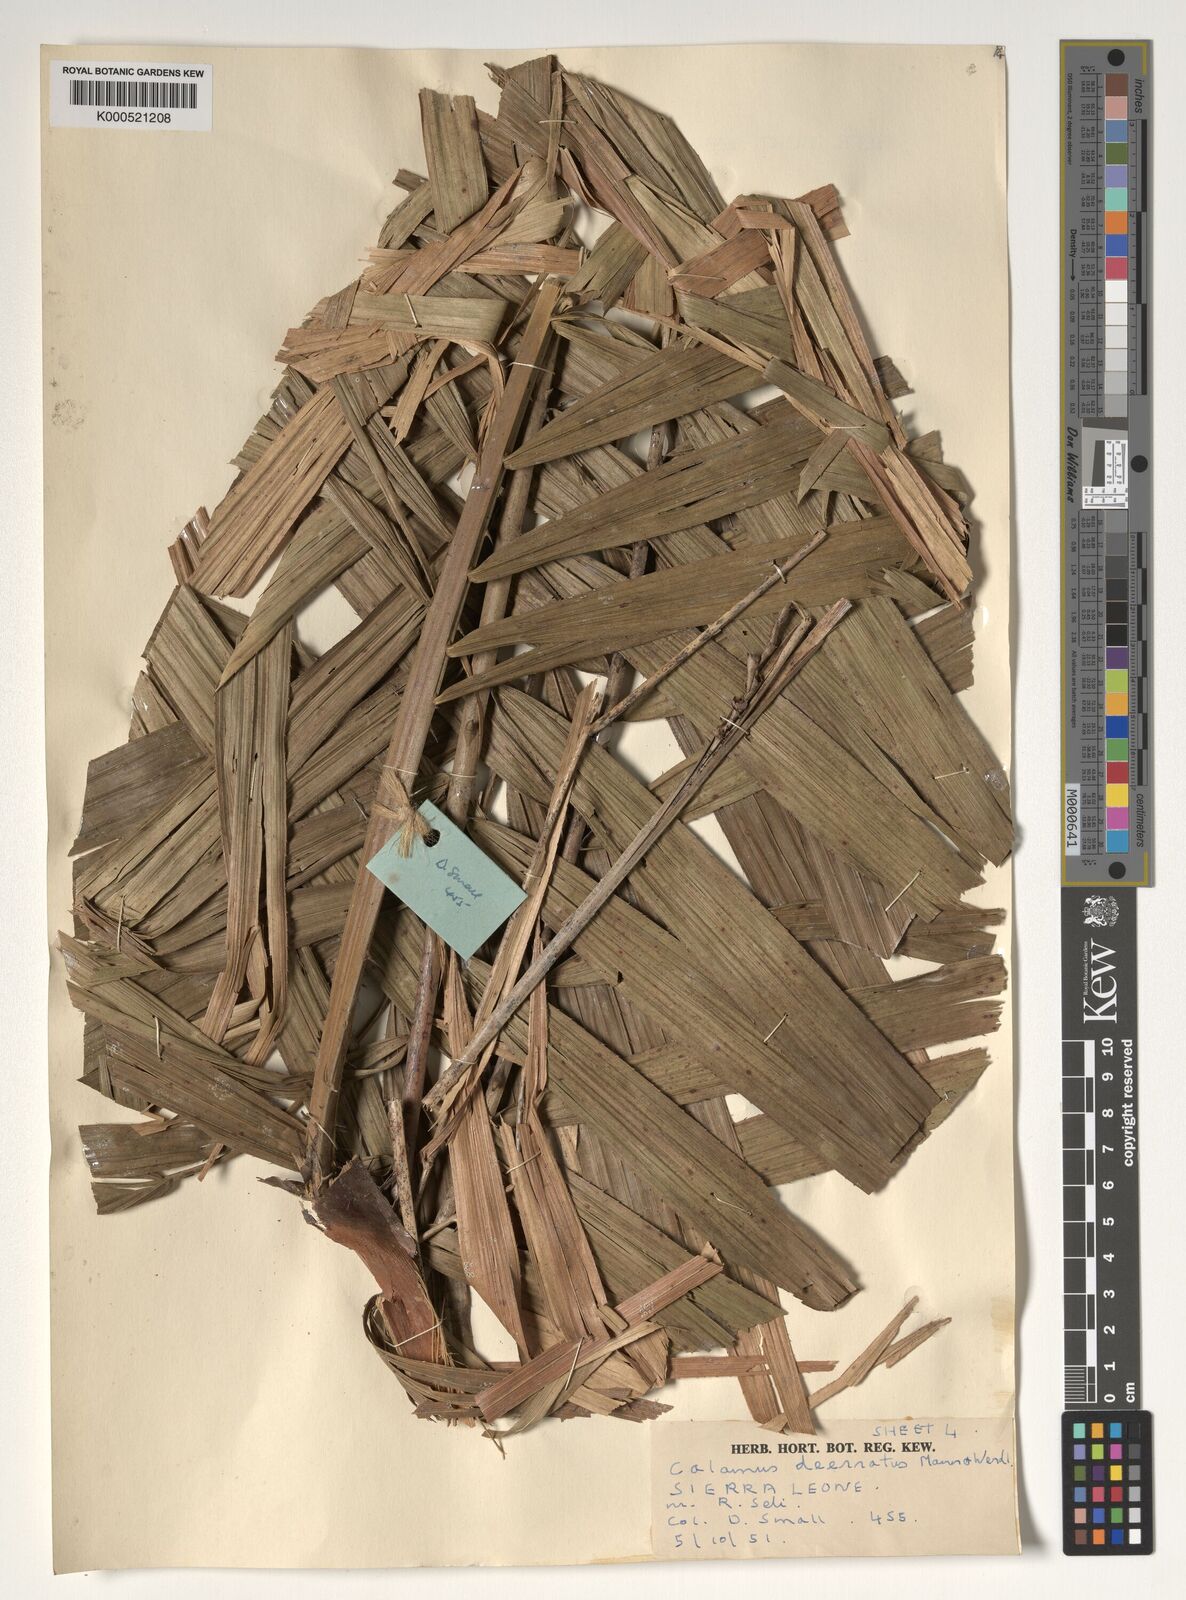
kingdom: Plantae
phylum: Tracheophyta
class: Liliopsida
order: Arecales
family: Arecaceae
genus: Calamus
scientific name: Calamus deerratus
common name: Rattan
